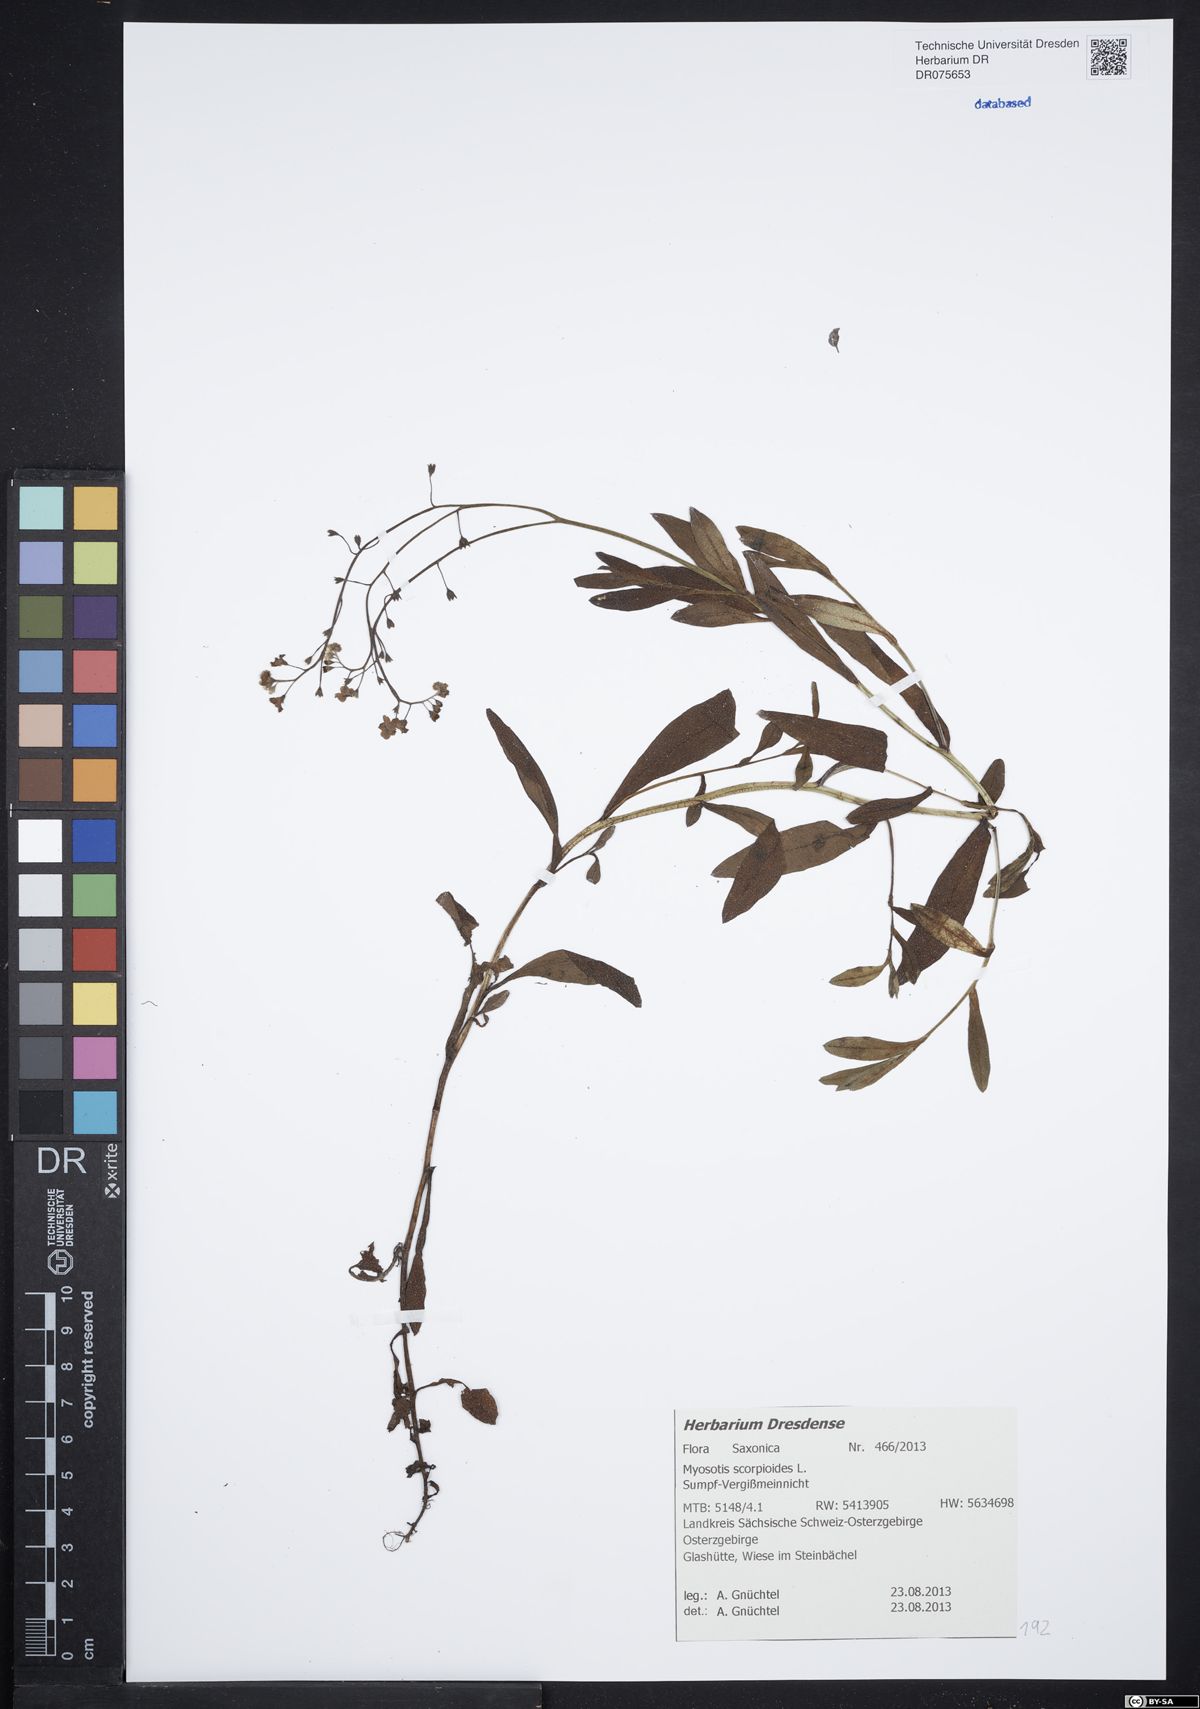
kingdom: Plantae
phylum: Tracheophyta
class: Magnoliopsida
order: Boraginales
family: Boraginaceae
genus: Myosotis
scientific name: Myosotis scorpioides
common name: Water forget-me-not
